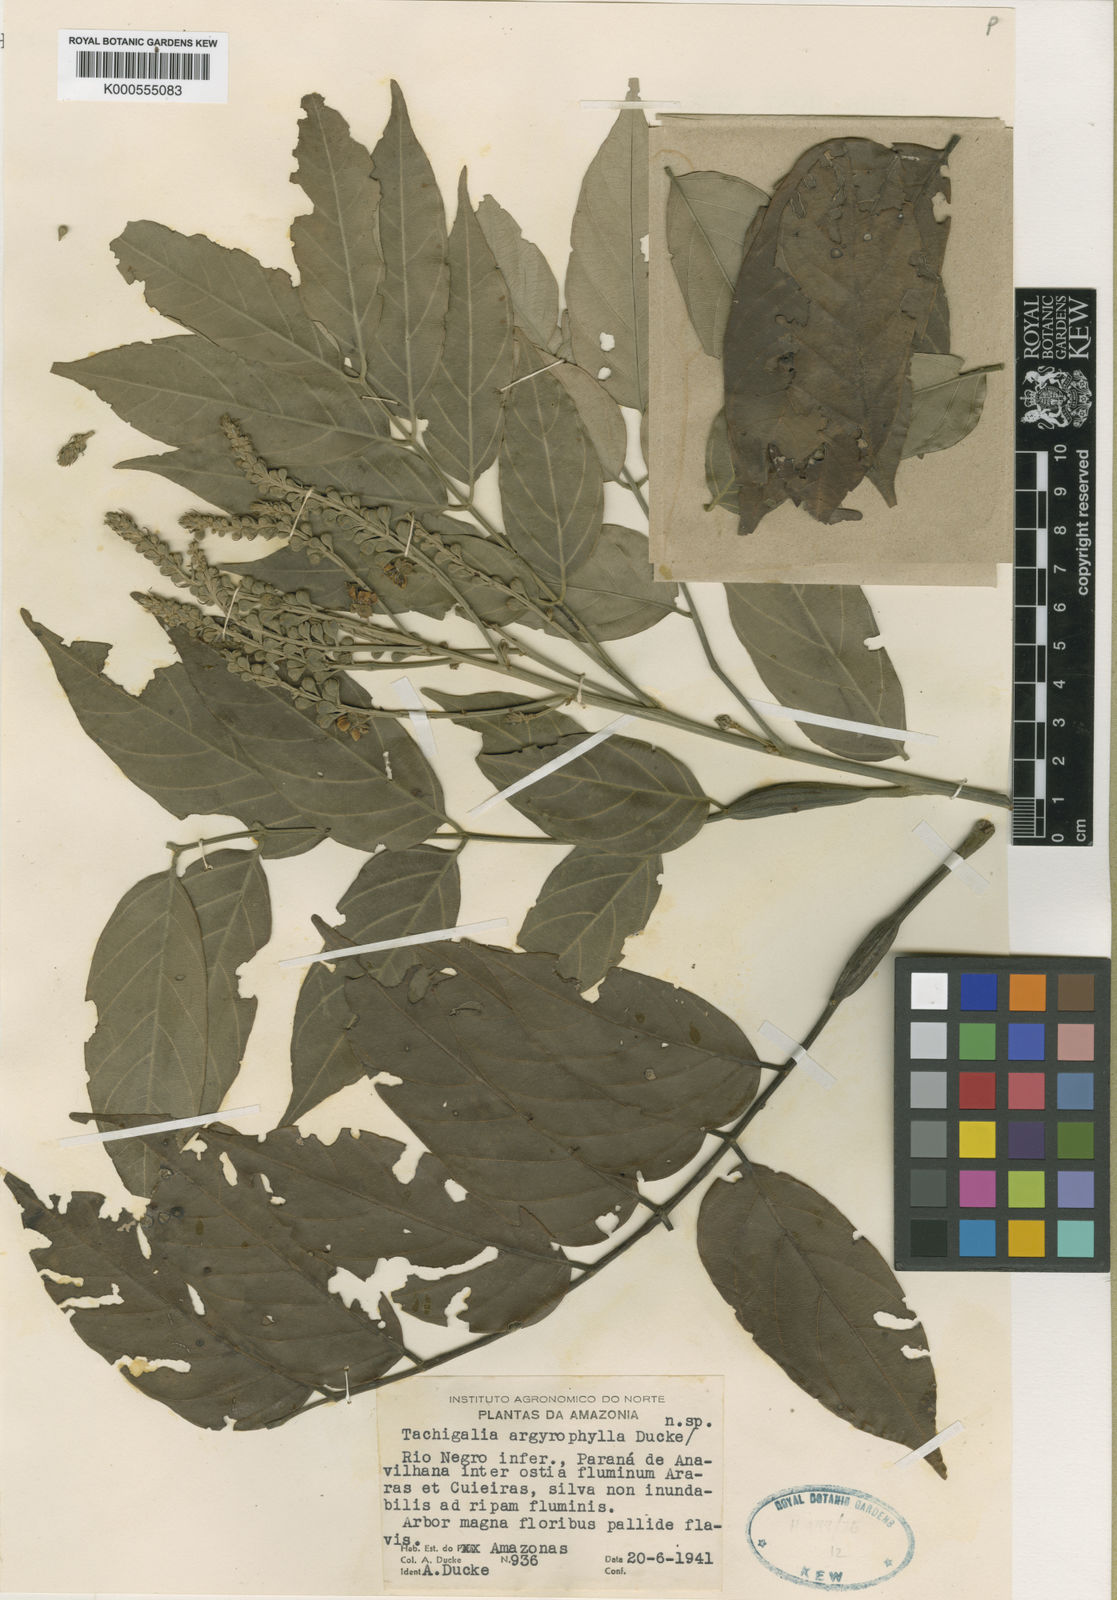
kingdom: Plantae
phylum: Tracheophyta
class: Magnoliopsida
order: Fabales
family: Fabaceae
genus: Tachigali
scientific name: Tachigali argyrophylla
